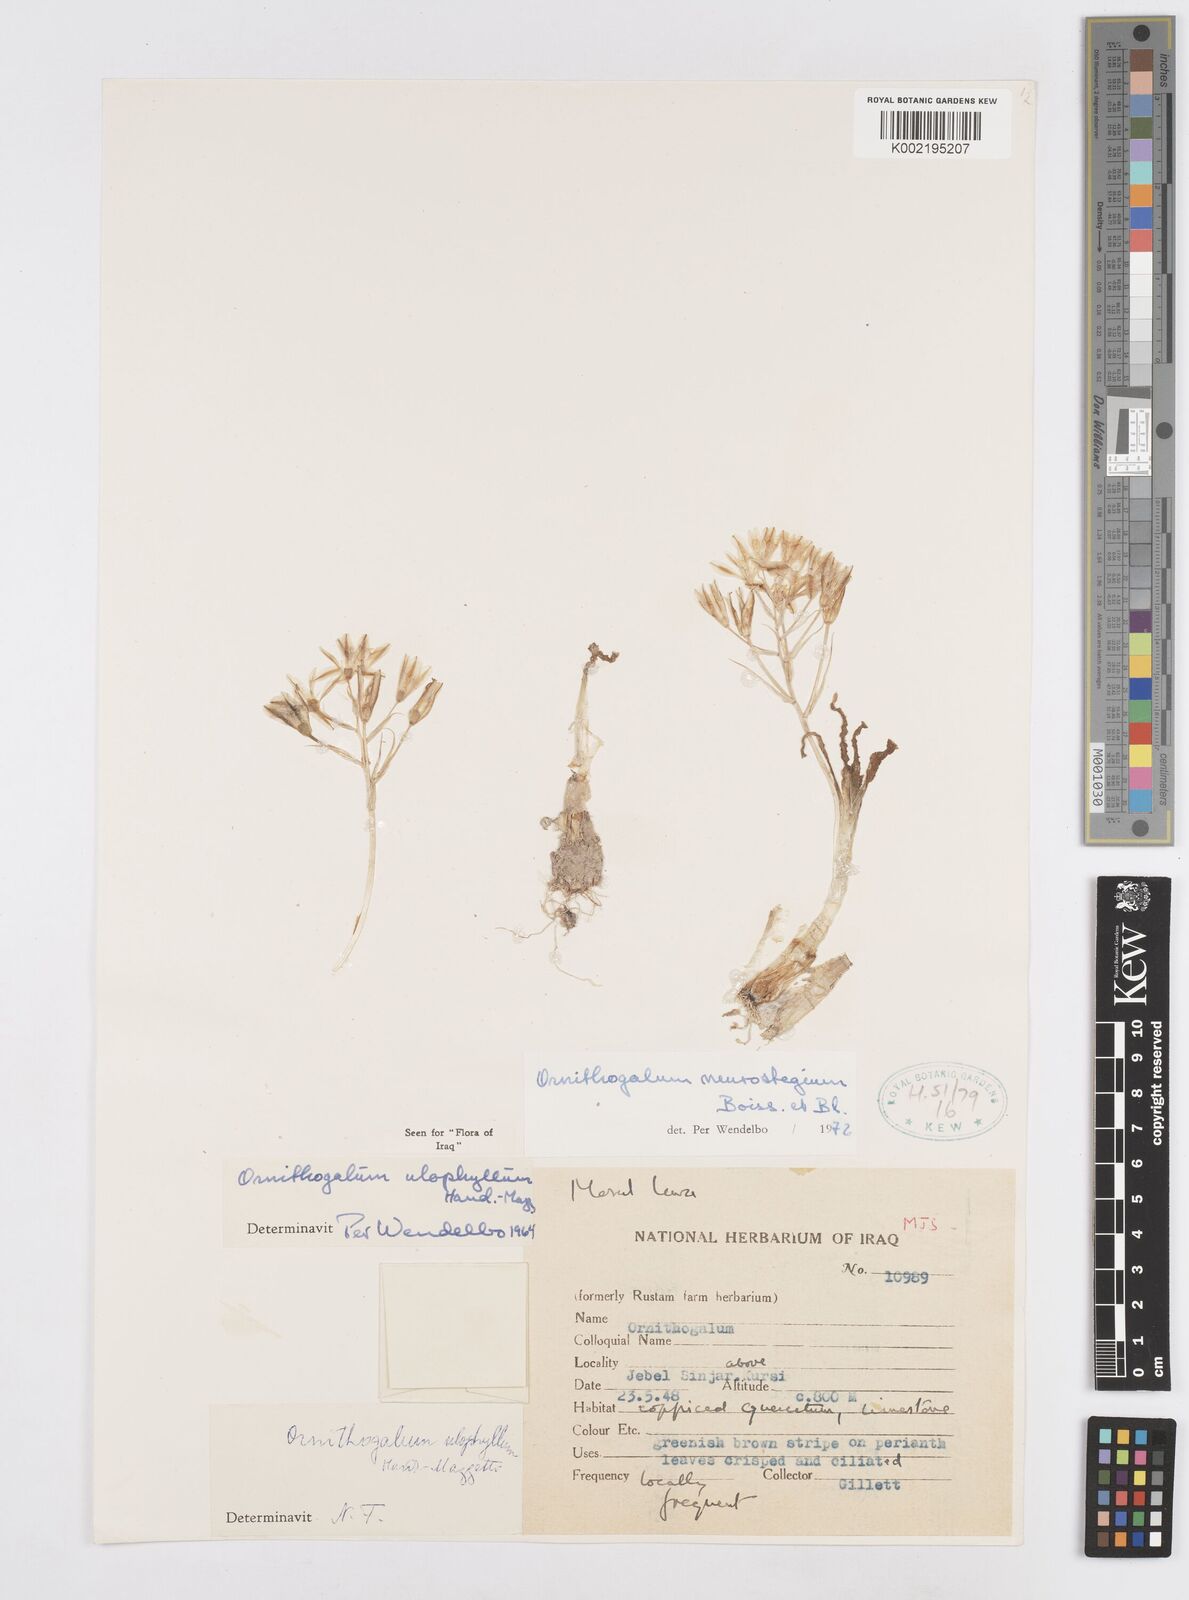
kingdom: Plantae
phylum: Tracheophyta
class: Liliopsida
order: Asparagales
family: Asparagaceae
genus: Ornithogalum
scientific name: Ornithogalum neurostegium
